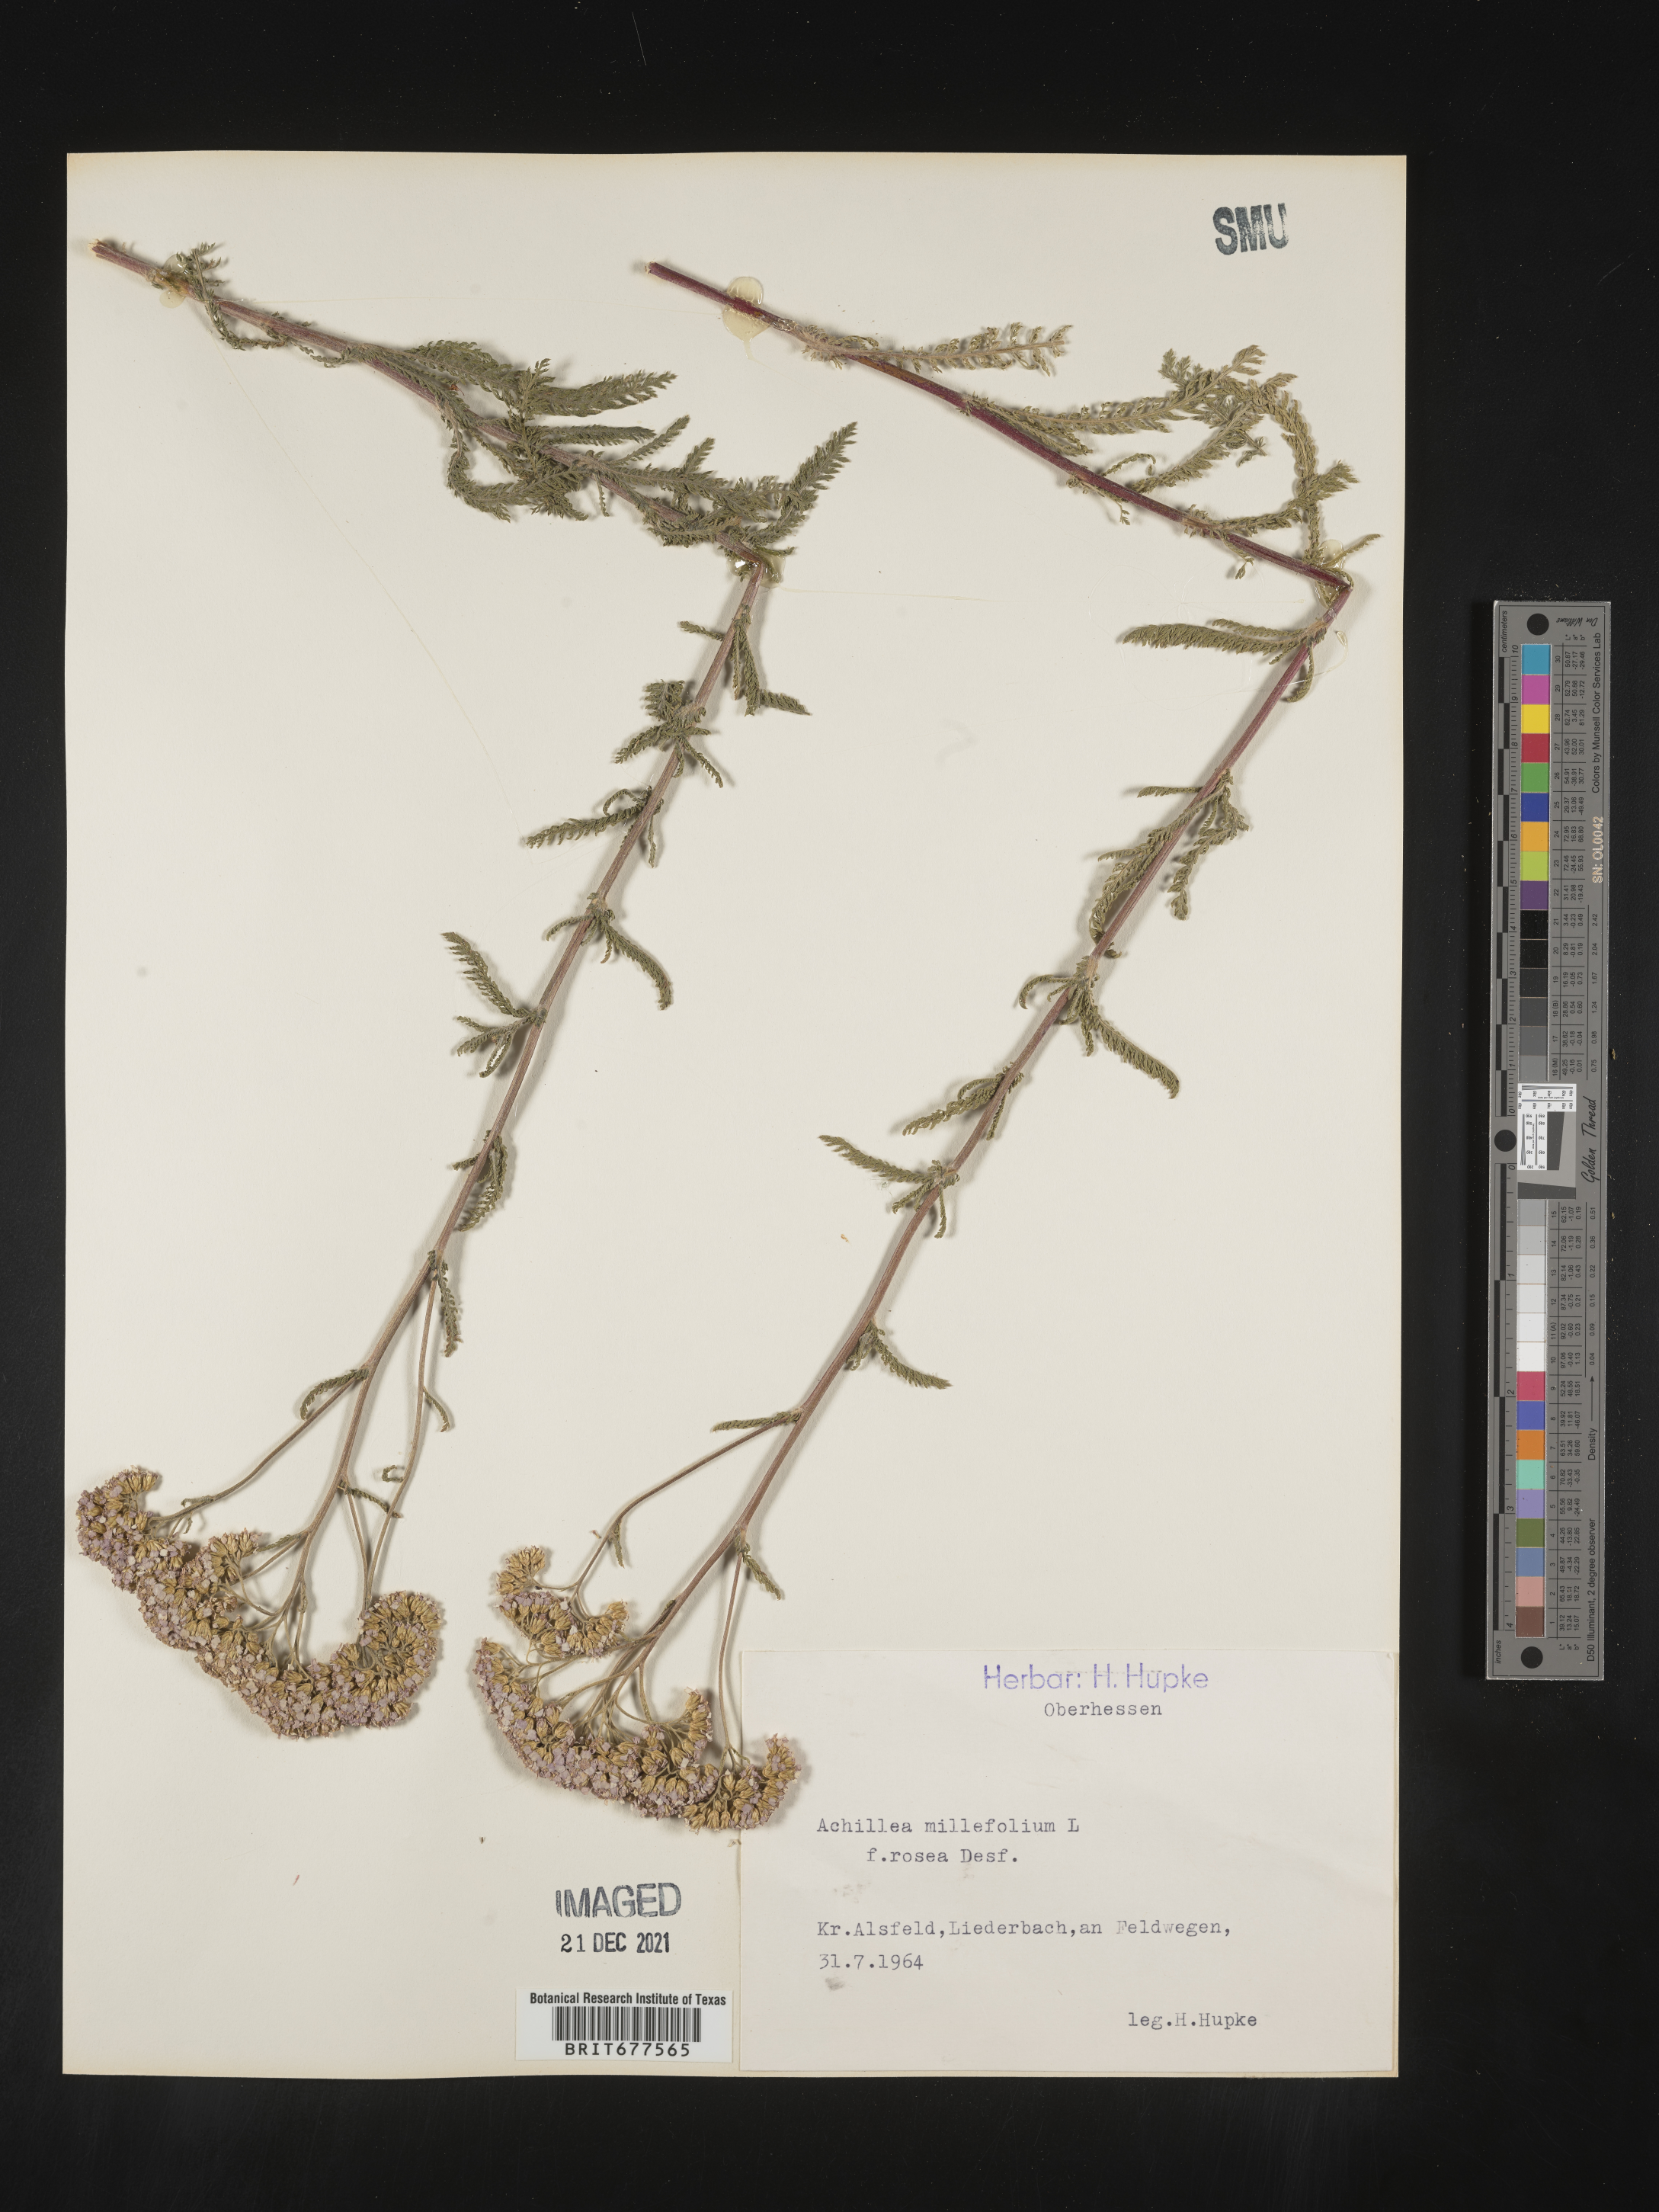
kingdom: Plantae
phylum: Tracheophyta
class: Magnoliopsida
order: Asterales
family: Asteraceae
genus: Achillea
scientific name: Achillea millefolium
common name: Yarrow
